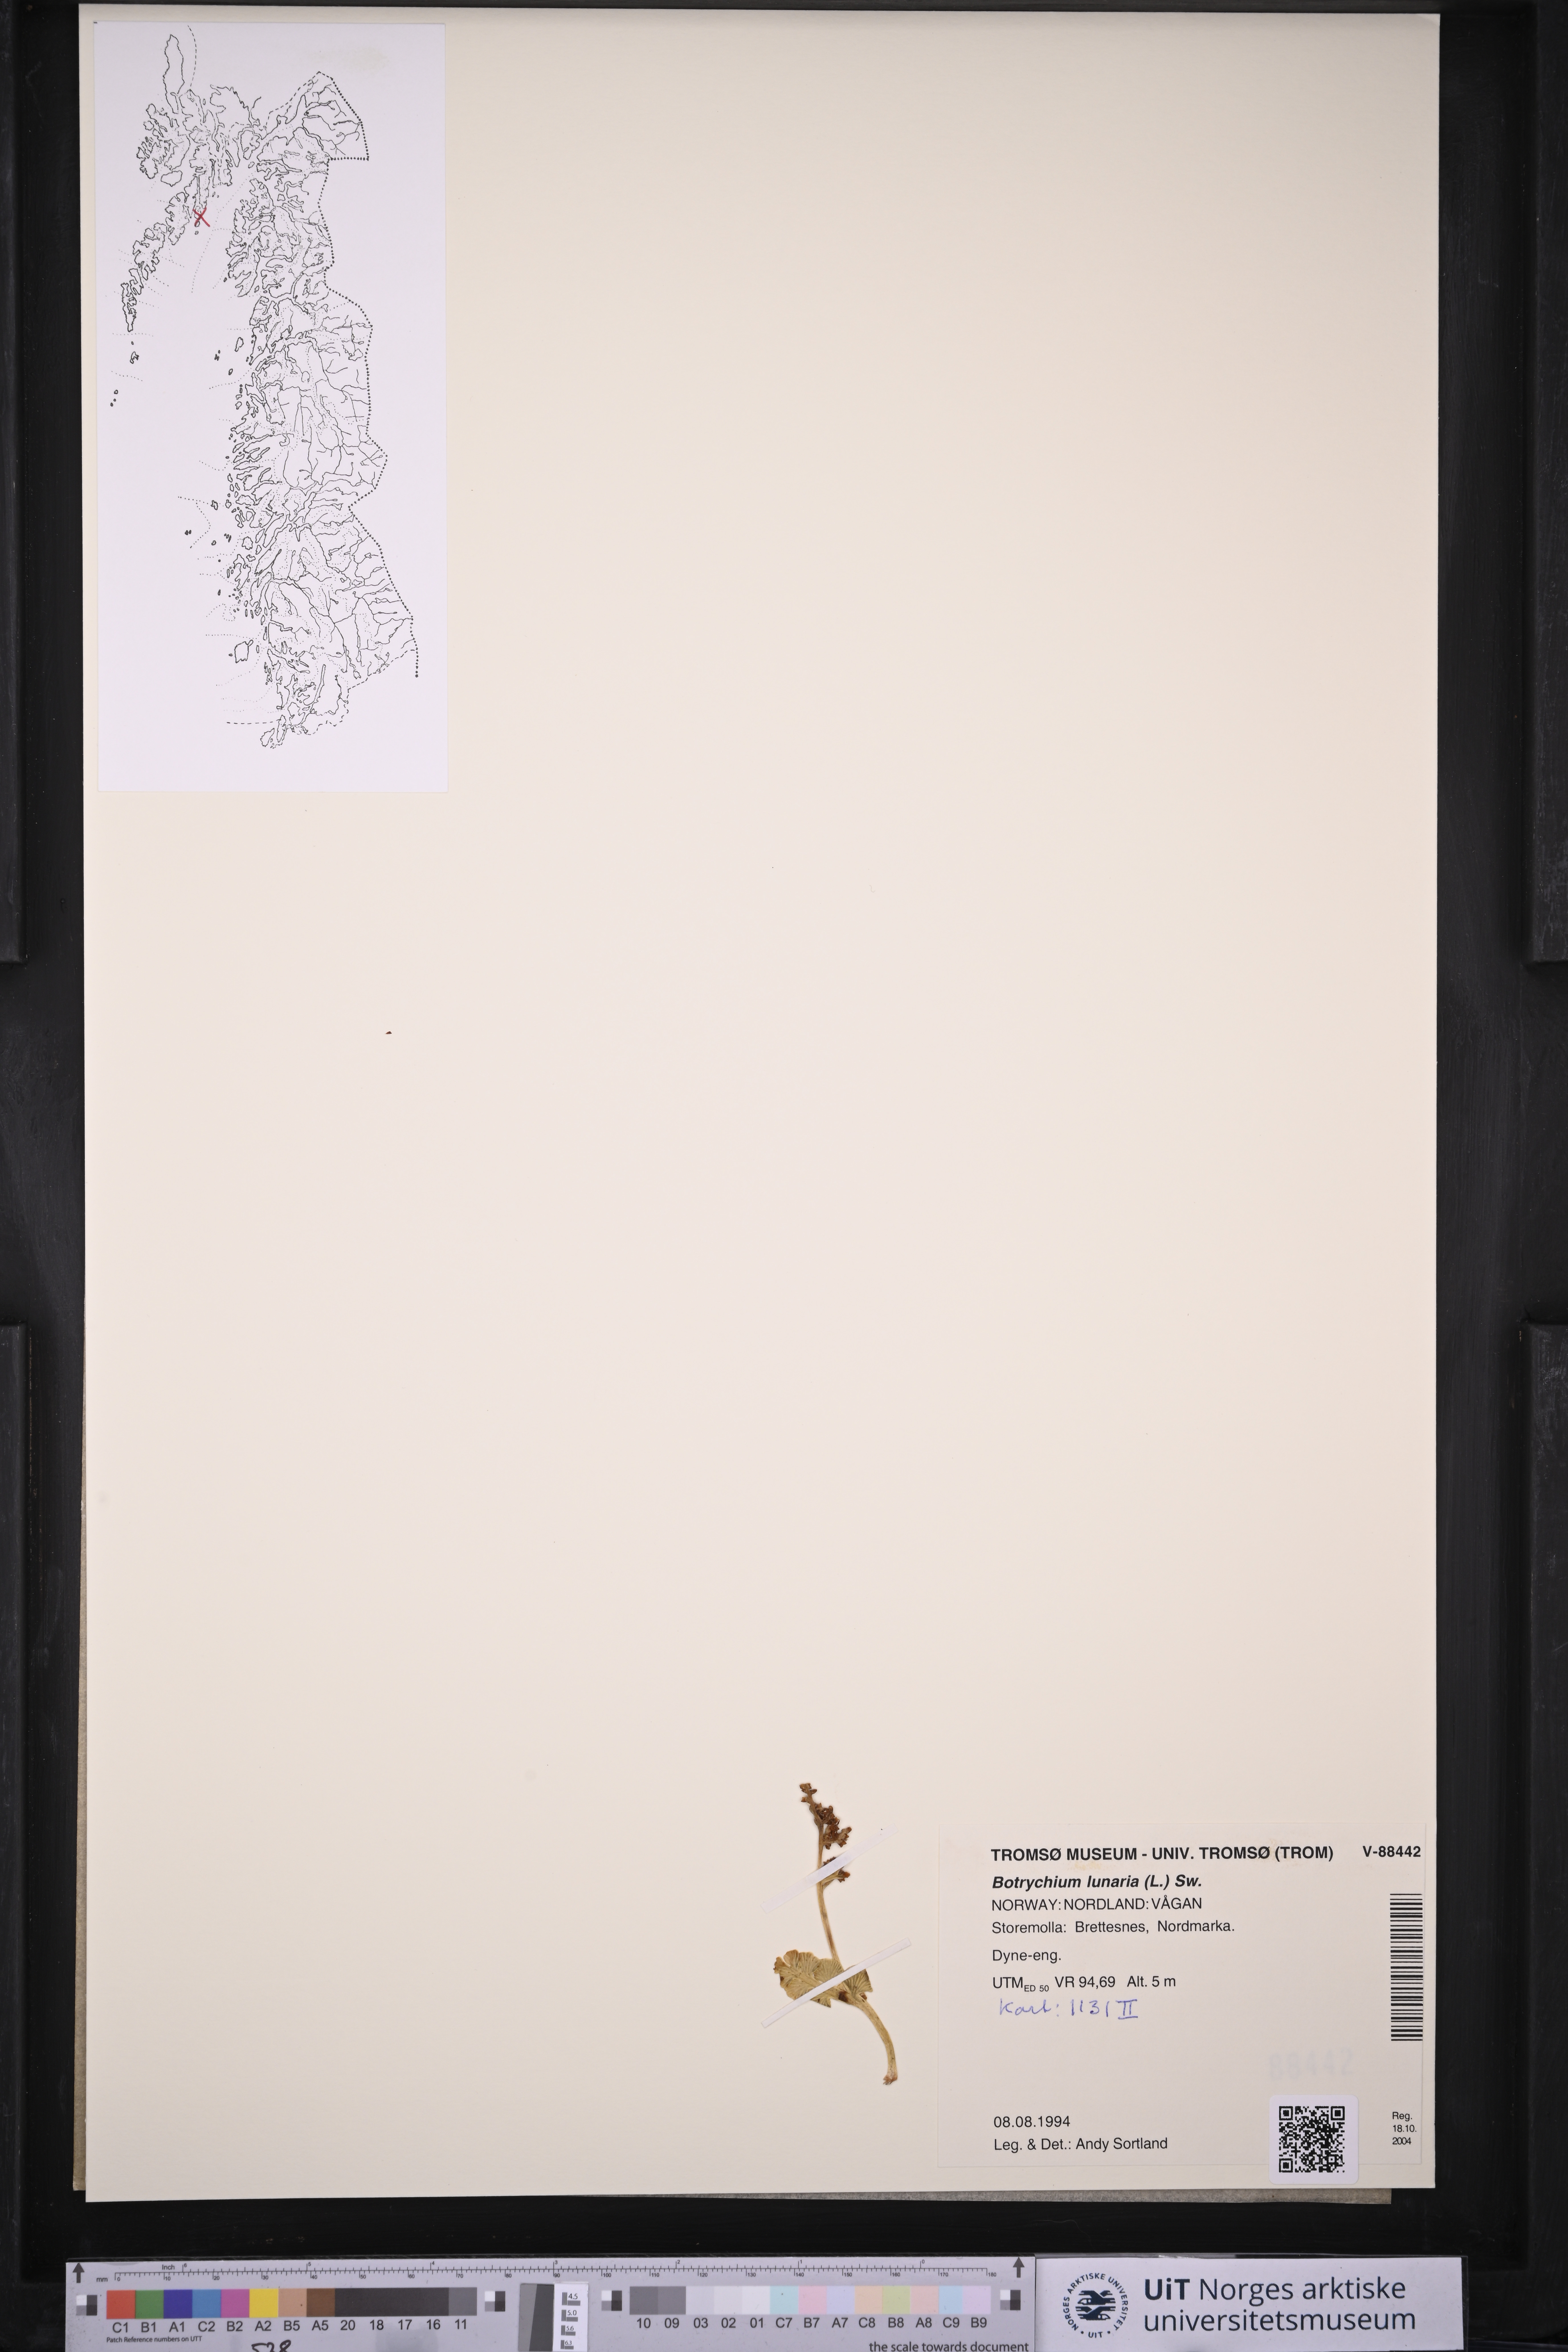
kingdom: Plantae
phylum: Tracheophyta
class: Polypodiopsida
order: Ophioglossales
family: Ophioglossaceae
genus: Botrychium
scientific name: Botrychium lunaria
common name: Moonwort
